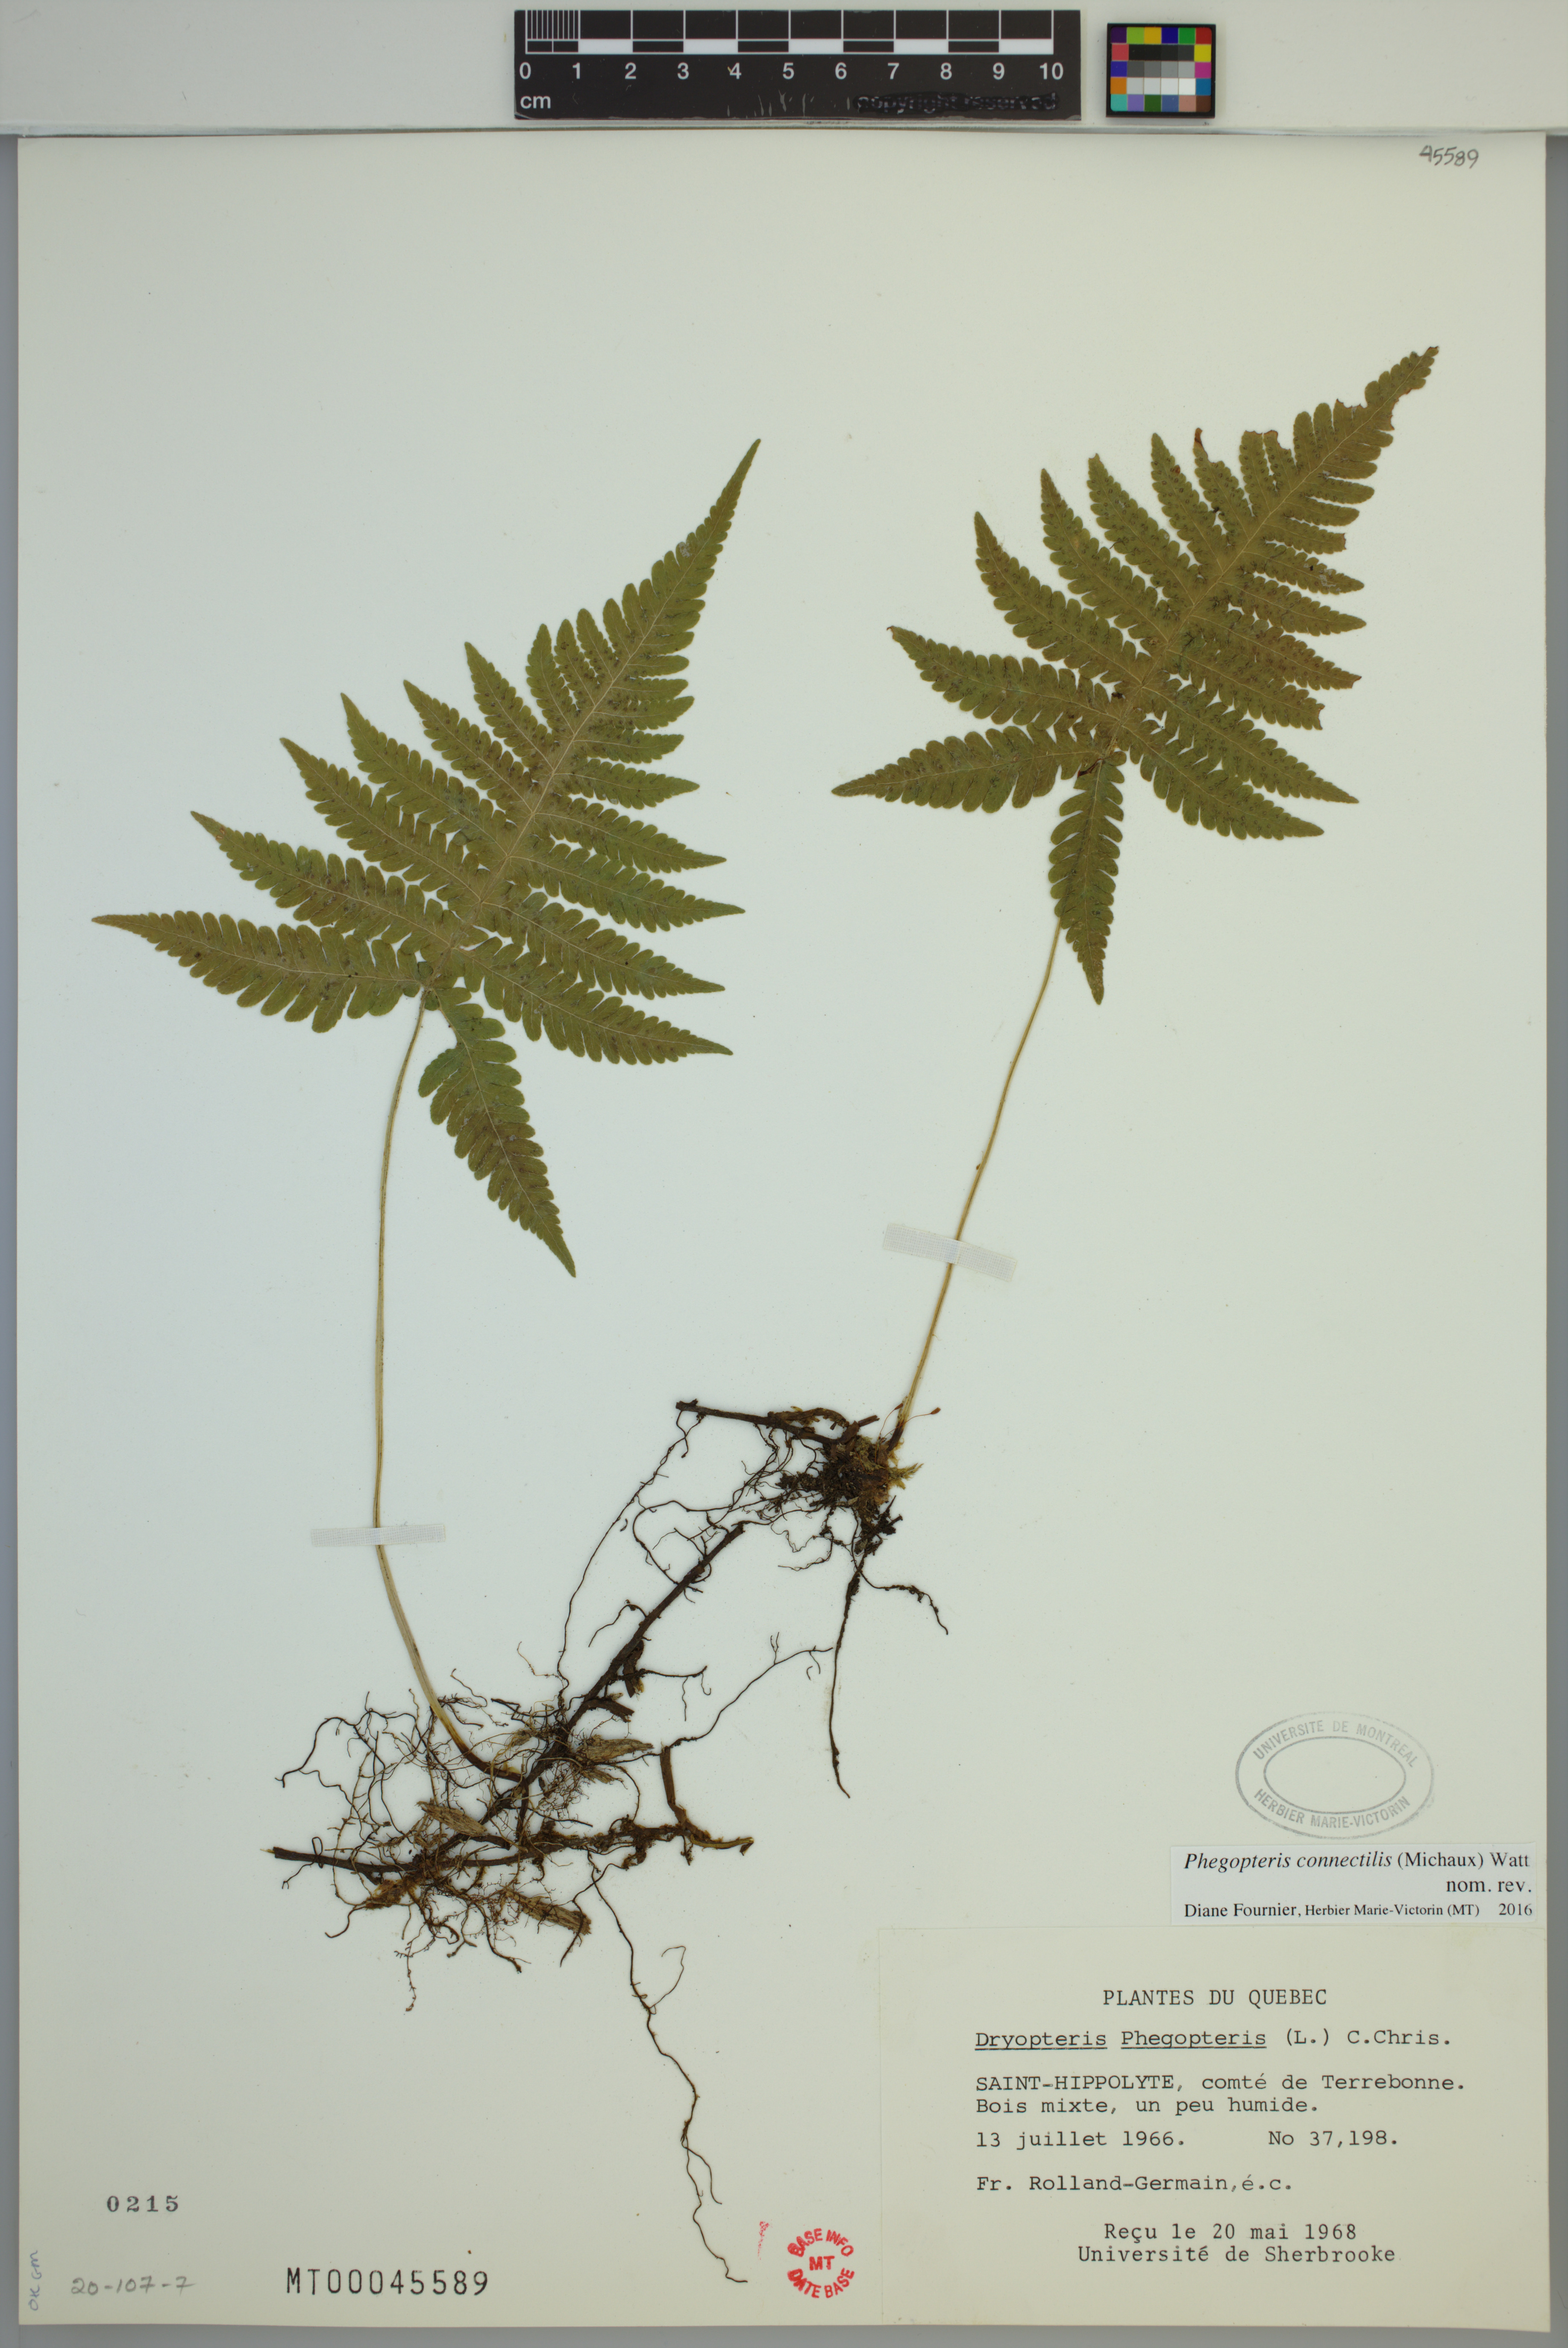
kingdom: Plantae
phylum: Tracheophyta
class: Polypodiopsida
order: Polypodiales
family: Thelypteridaceae
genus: Phegopteris
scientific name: Phegopteris connectilis
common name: Beech fern
